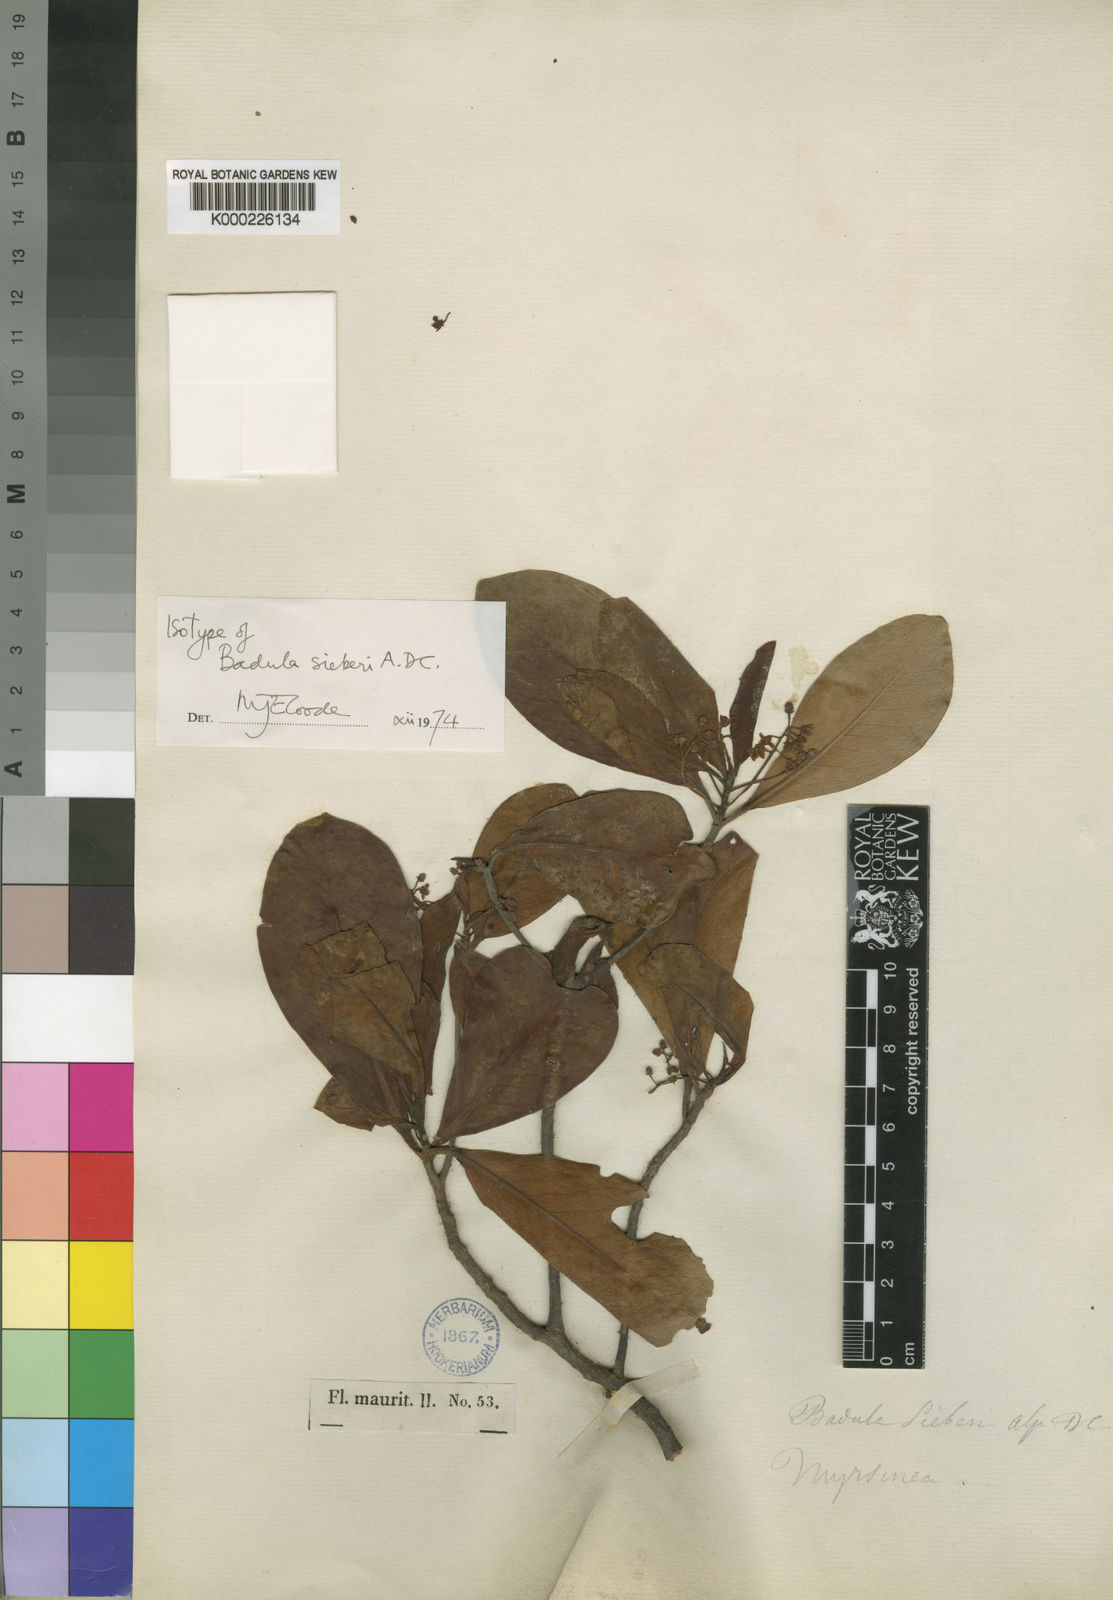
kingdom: Plantae
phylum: Tracheophyta
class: Magnoliopsida
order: Ericales
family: Primulaceae
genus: Badula
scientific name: Badula sieberi
